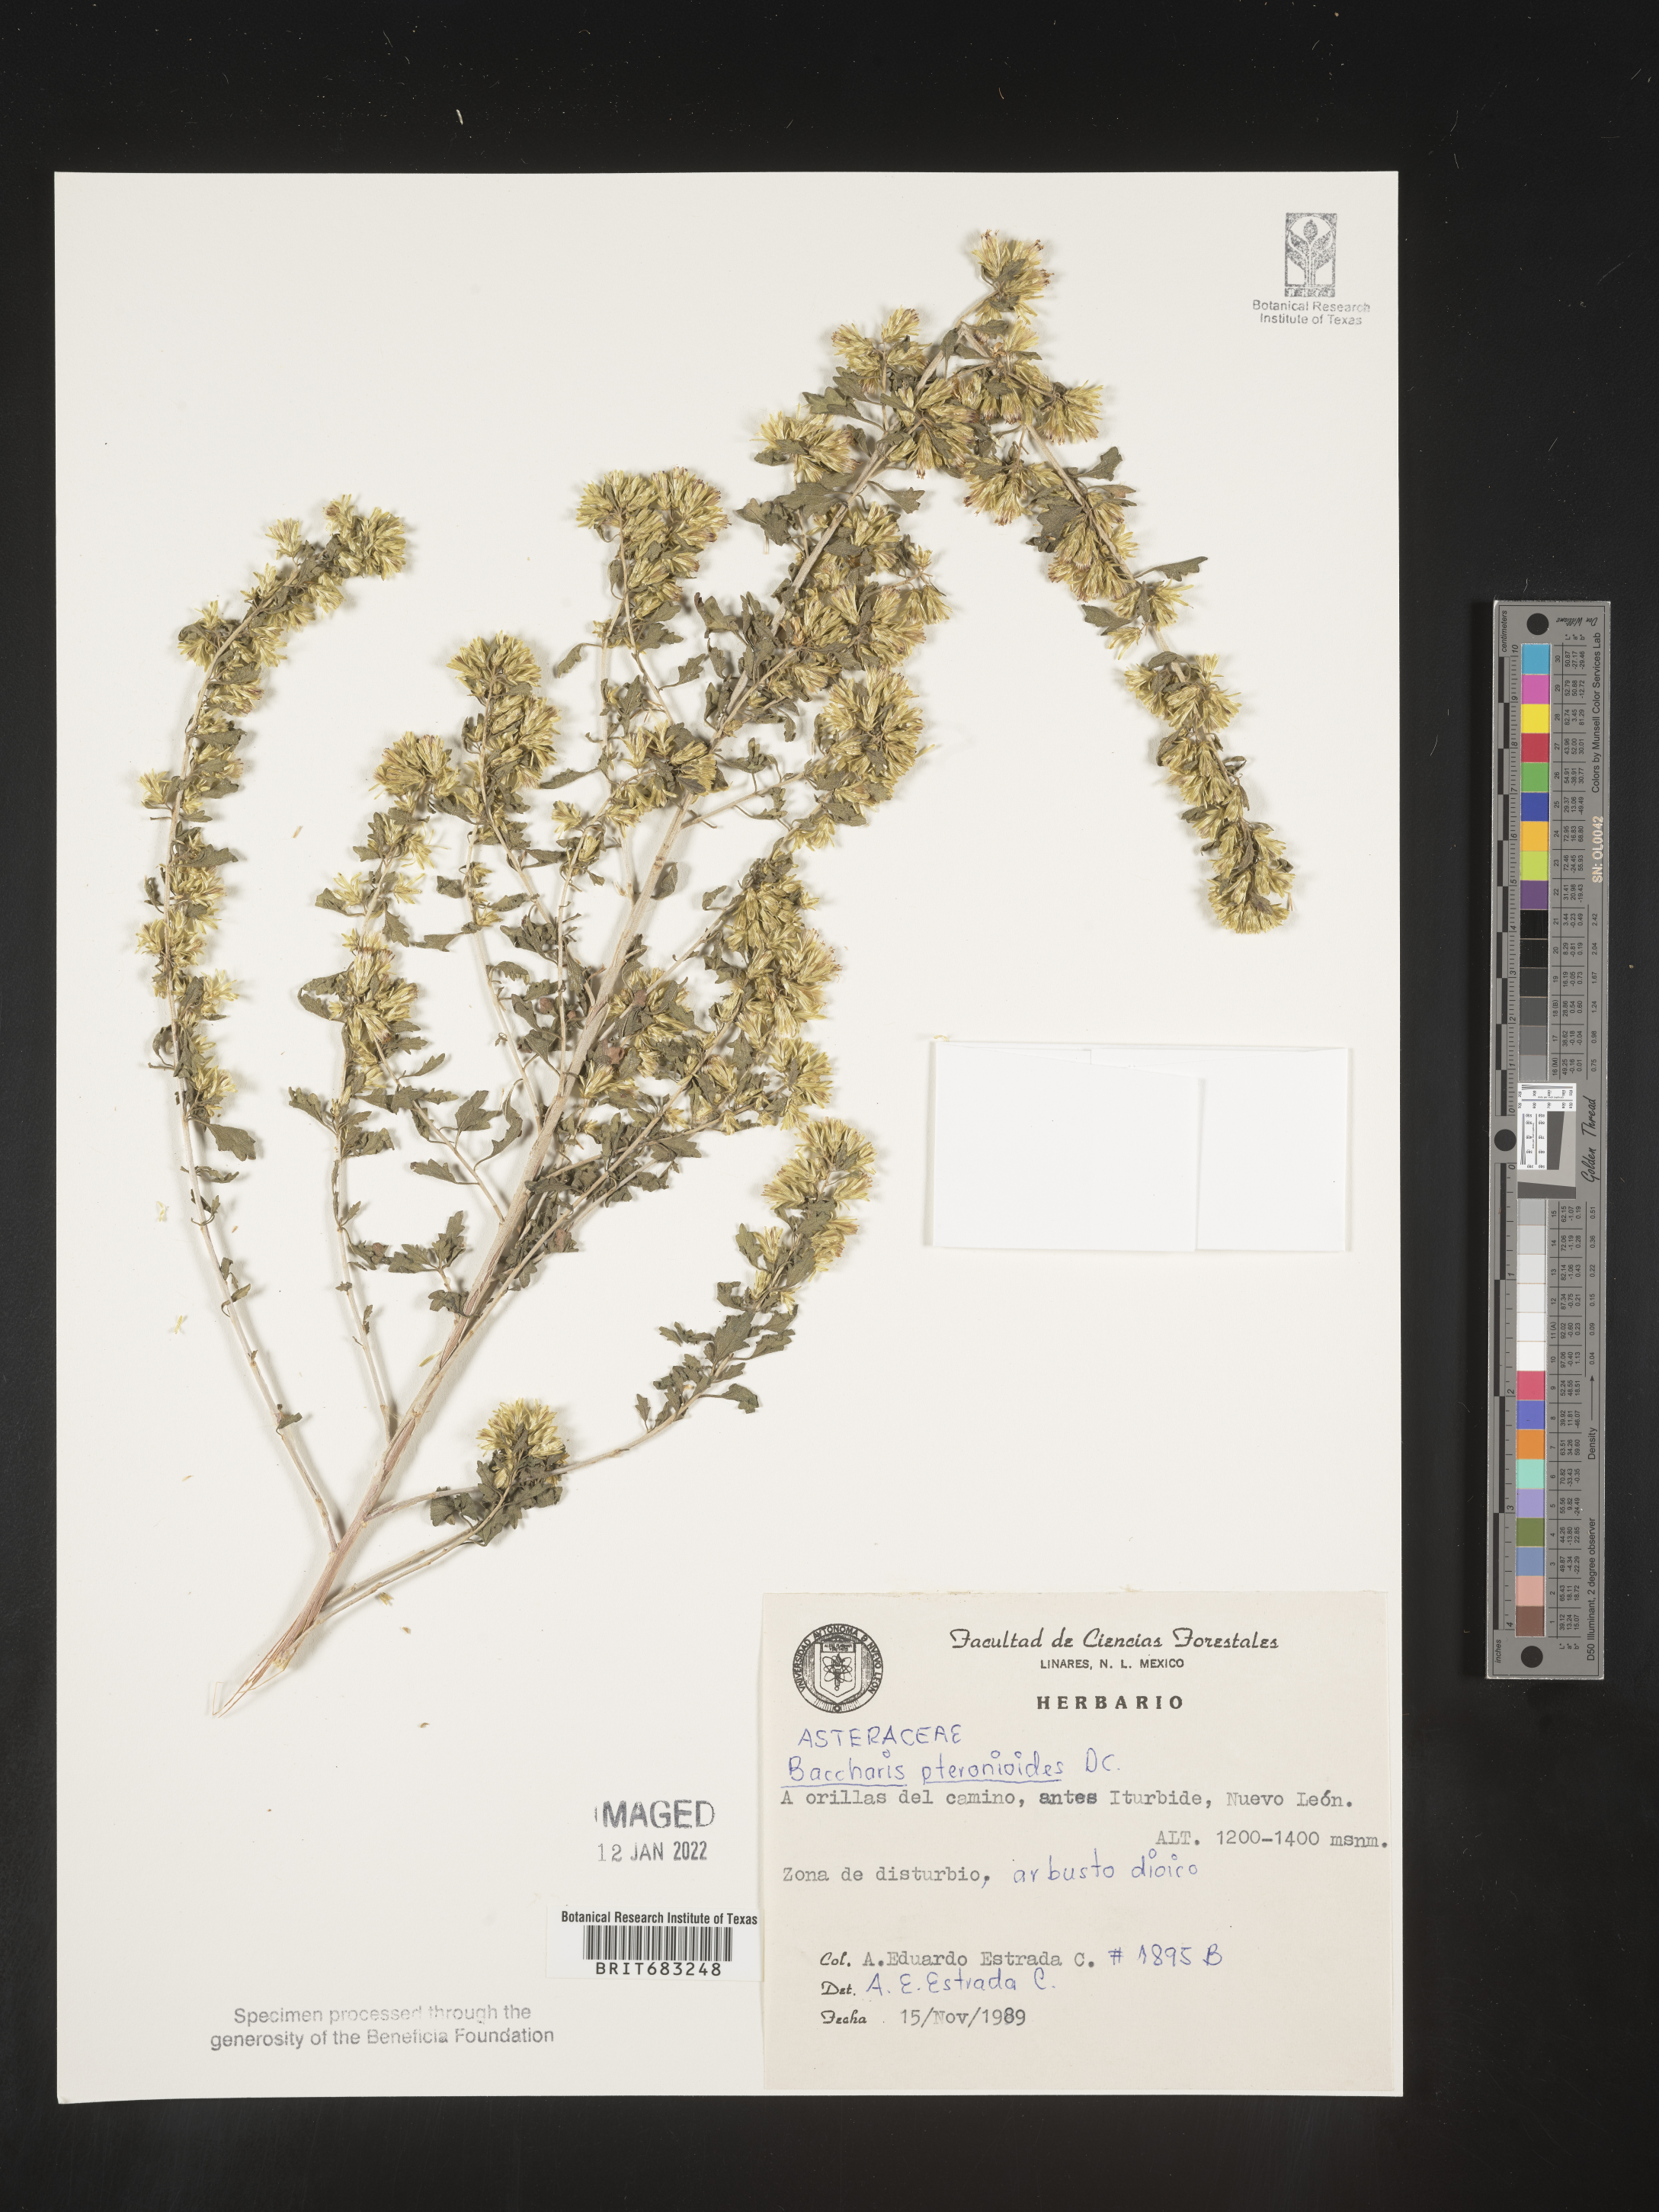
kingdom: Plantae
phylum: Tracheophyta
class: Magnoliopsida
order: Asterales
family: Asteraceae
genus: Baccharis
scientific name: Baccharis pteronioides
